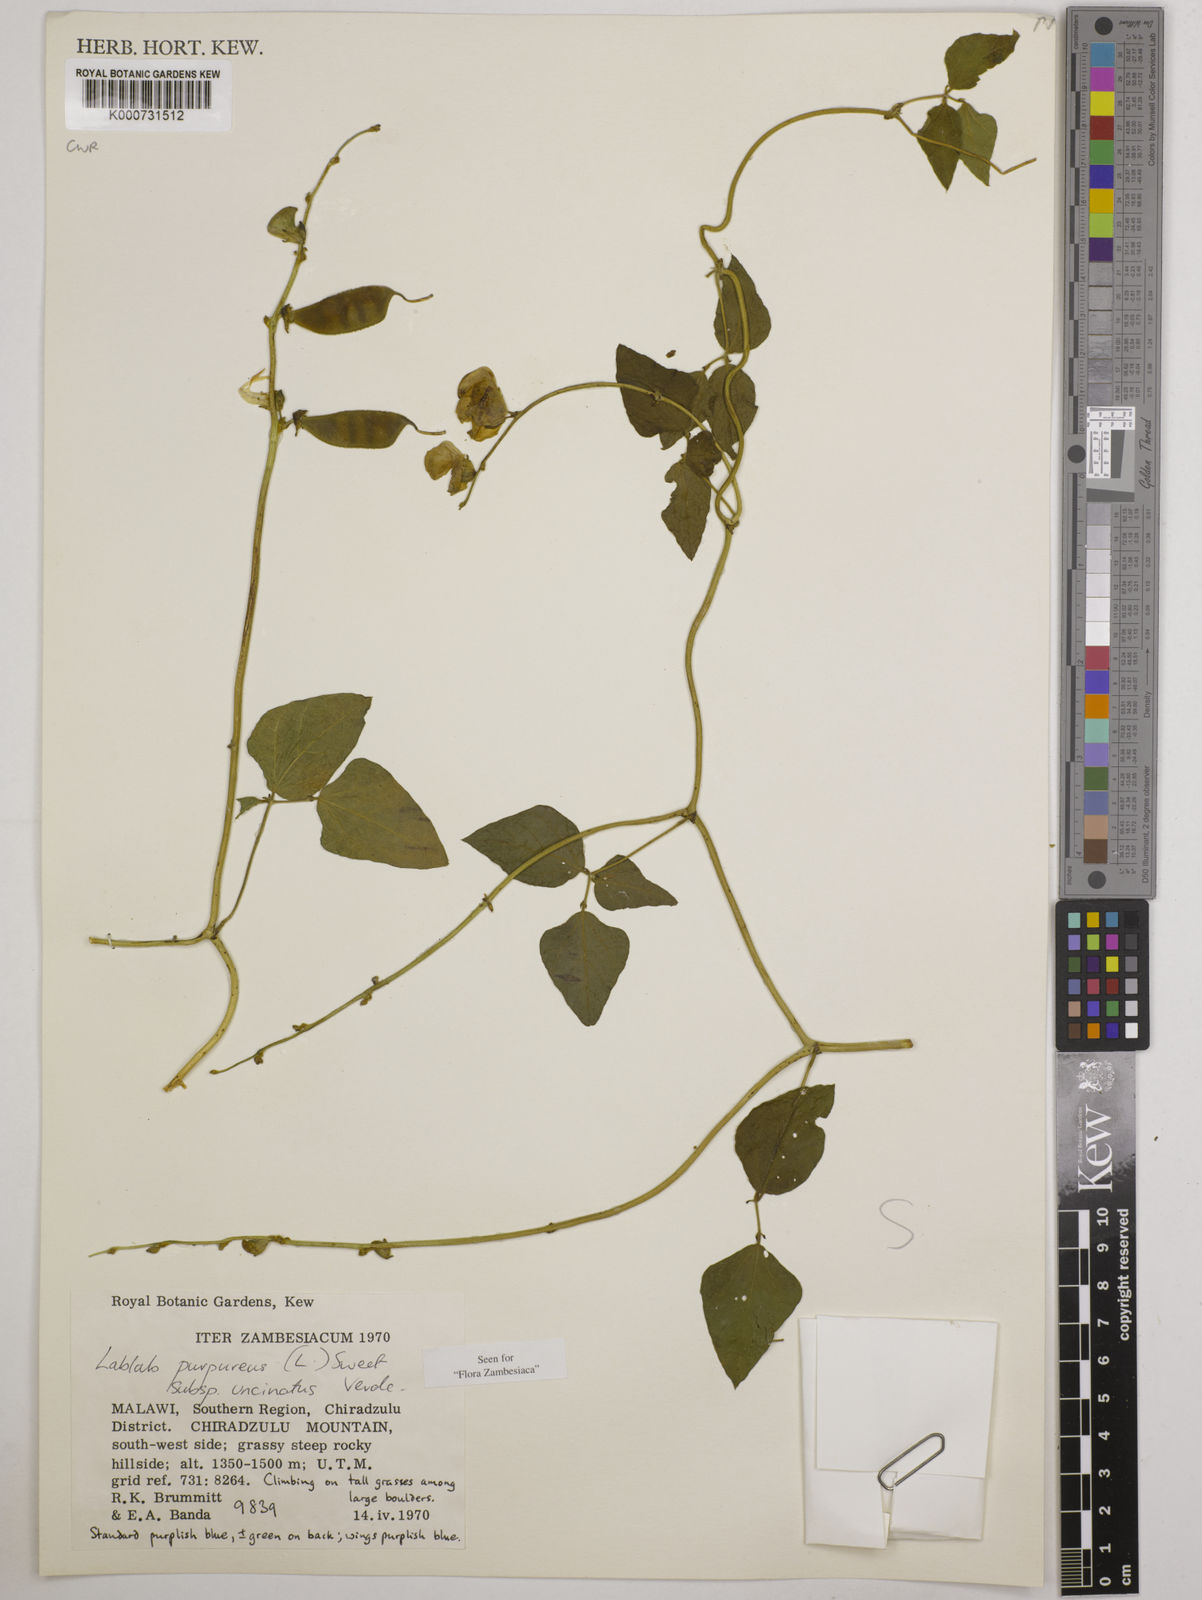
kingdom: Plantae
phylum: Tracheophyta
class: Magnoliopsida
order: Fabales
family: Fabaceae
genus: Lablab
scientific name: Lablab purpureus
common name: Lablab-bean
